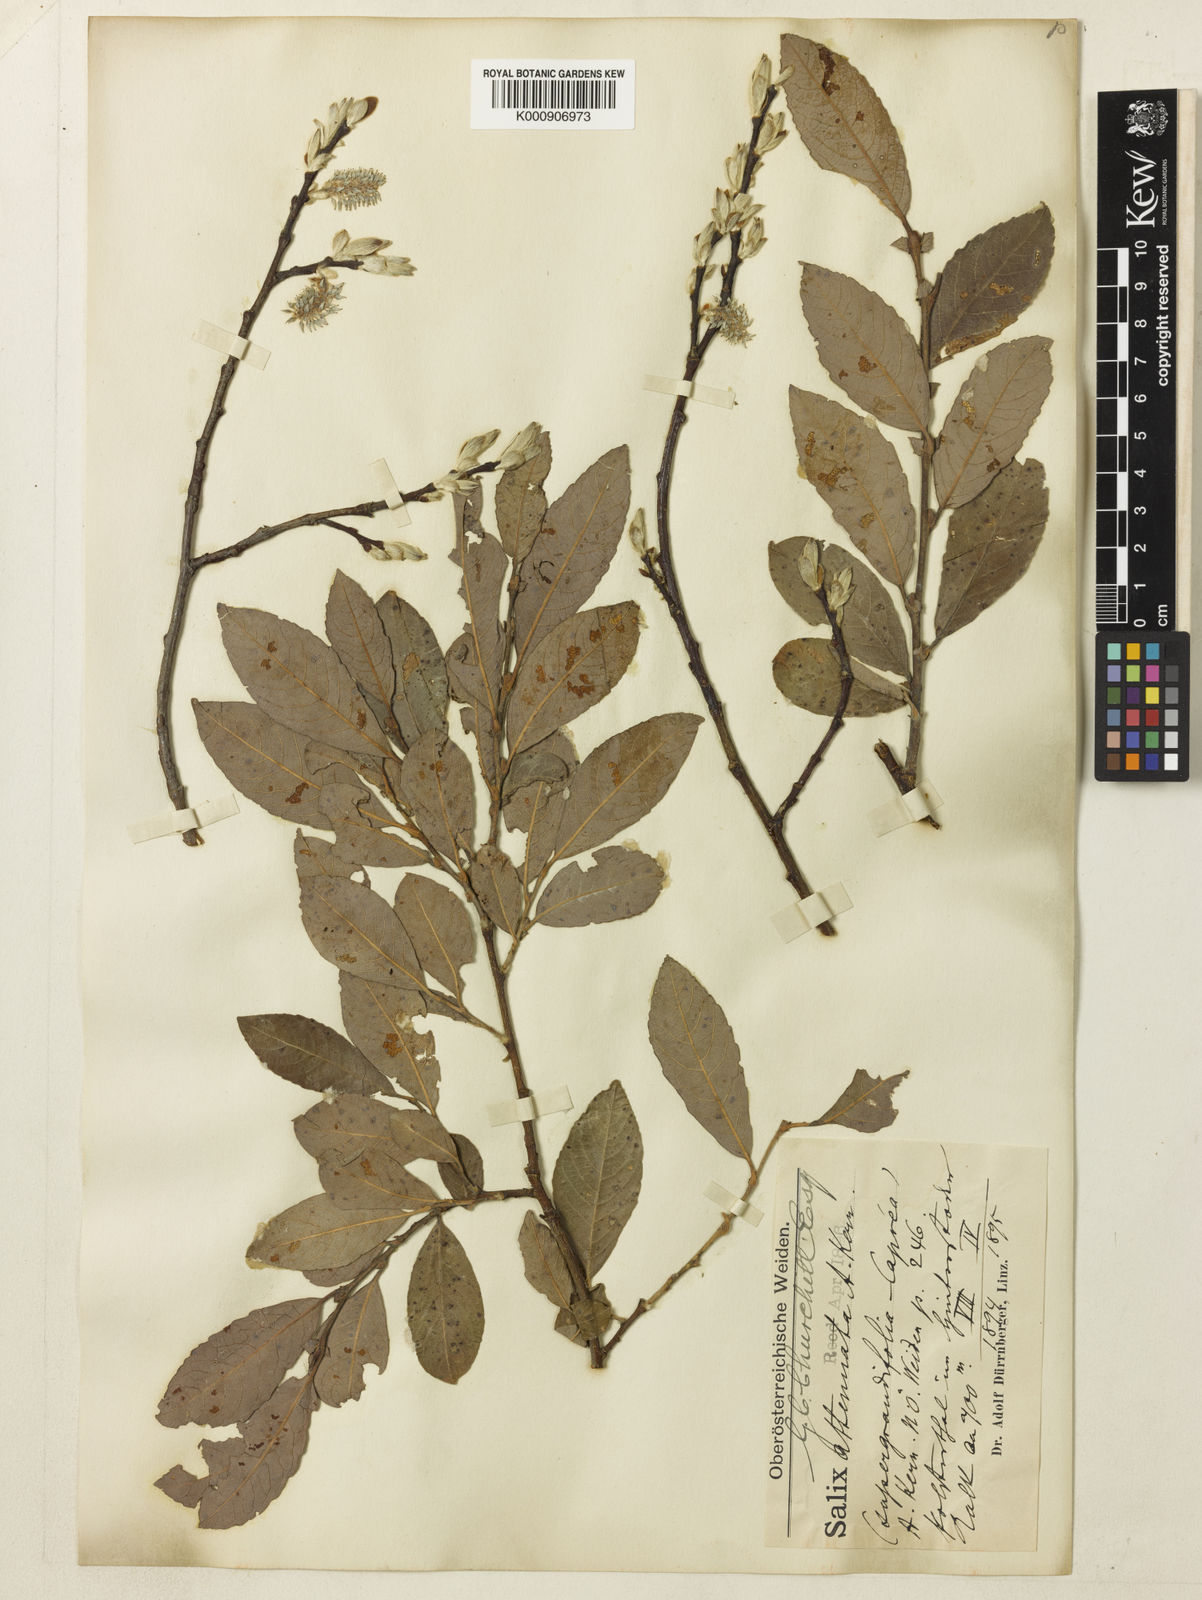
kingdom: Plantae
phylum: Tracheophyta
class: Magnoliopsida
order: Malpighiales
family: Salicaceae
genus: Salix
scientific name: Salix appendiculata
